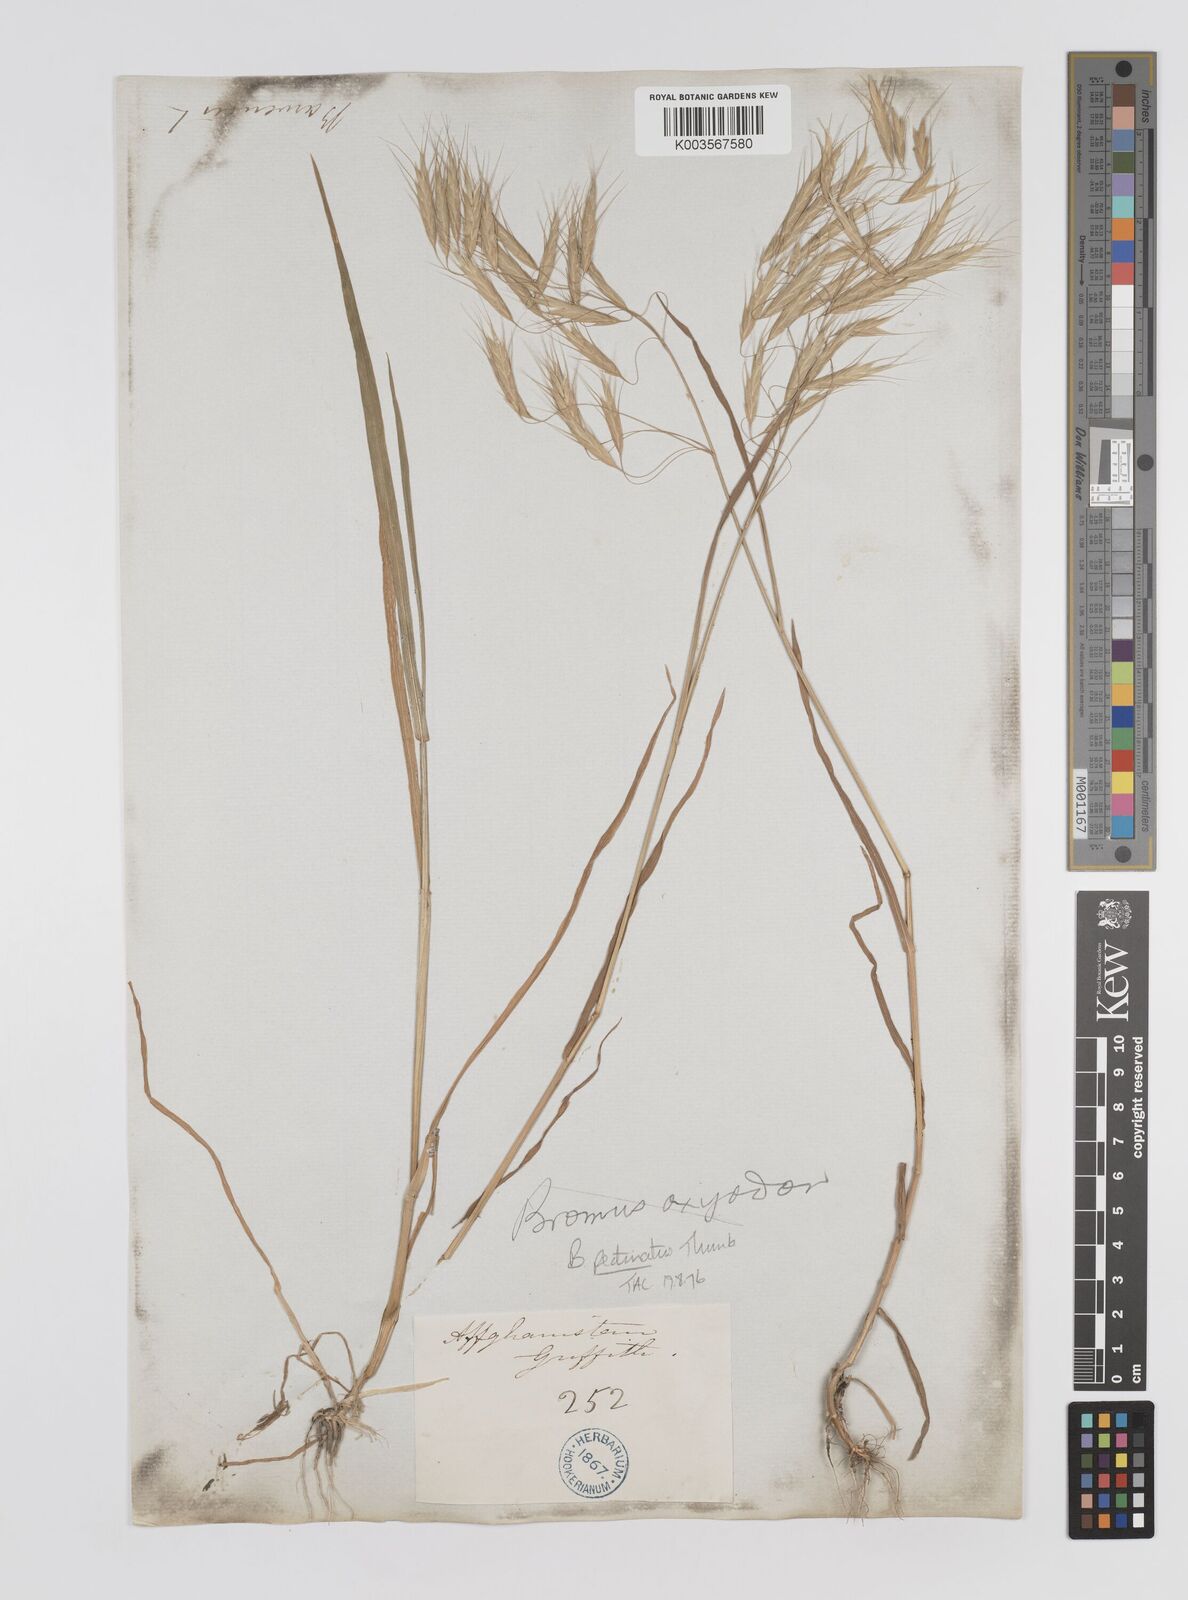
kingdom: Plantae
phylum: Tracheophyta
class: Liliopsida
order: Poales
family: Poaceae
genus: Bromus
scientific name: Bromus pectinatus
